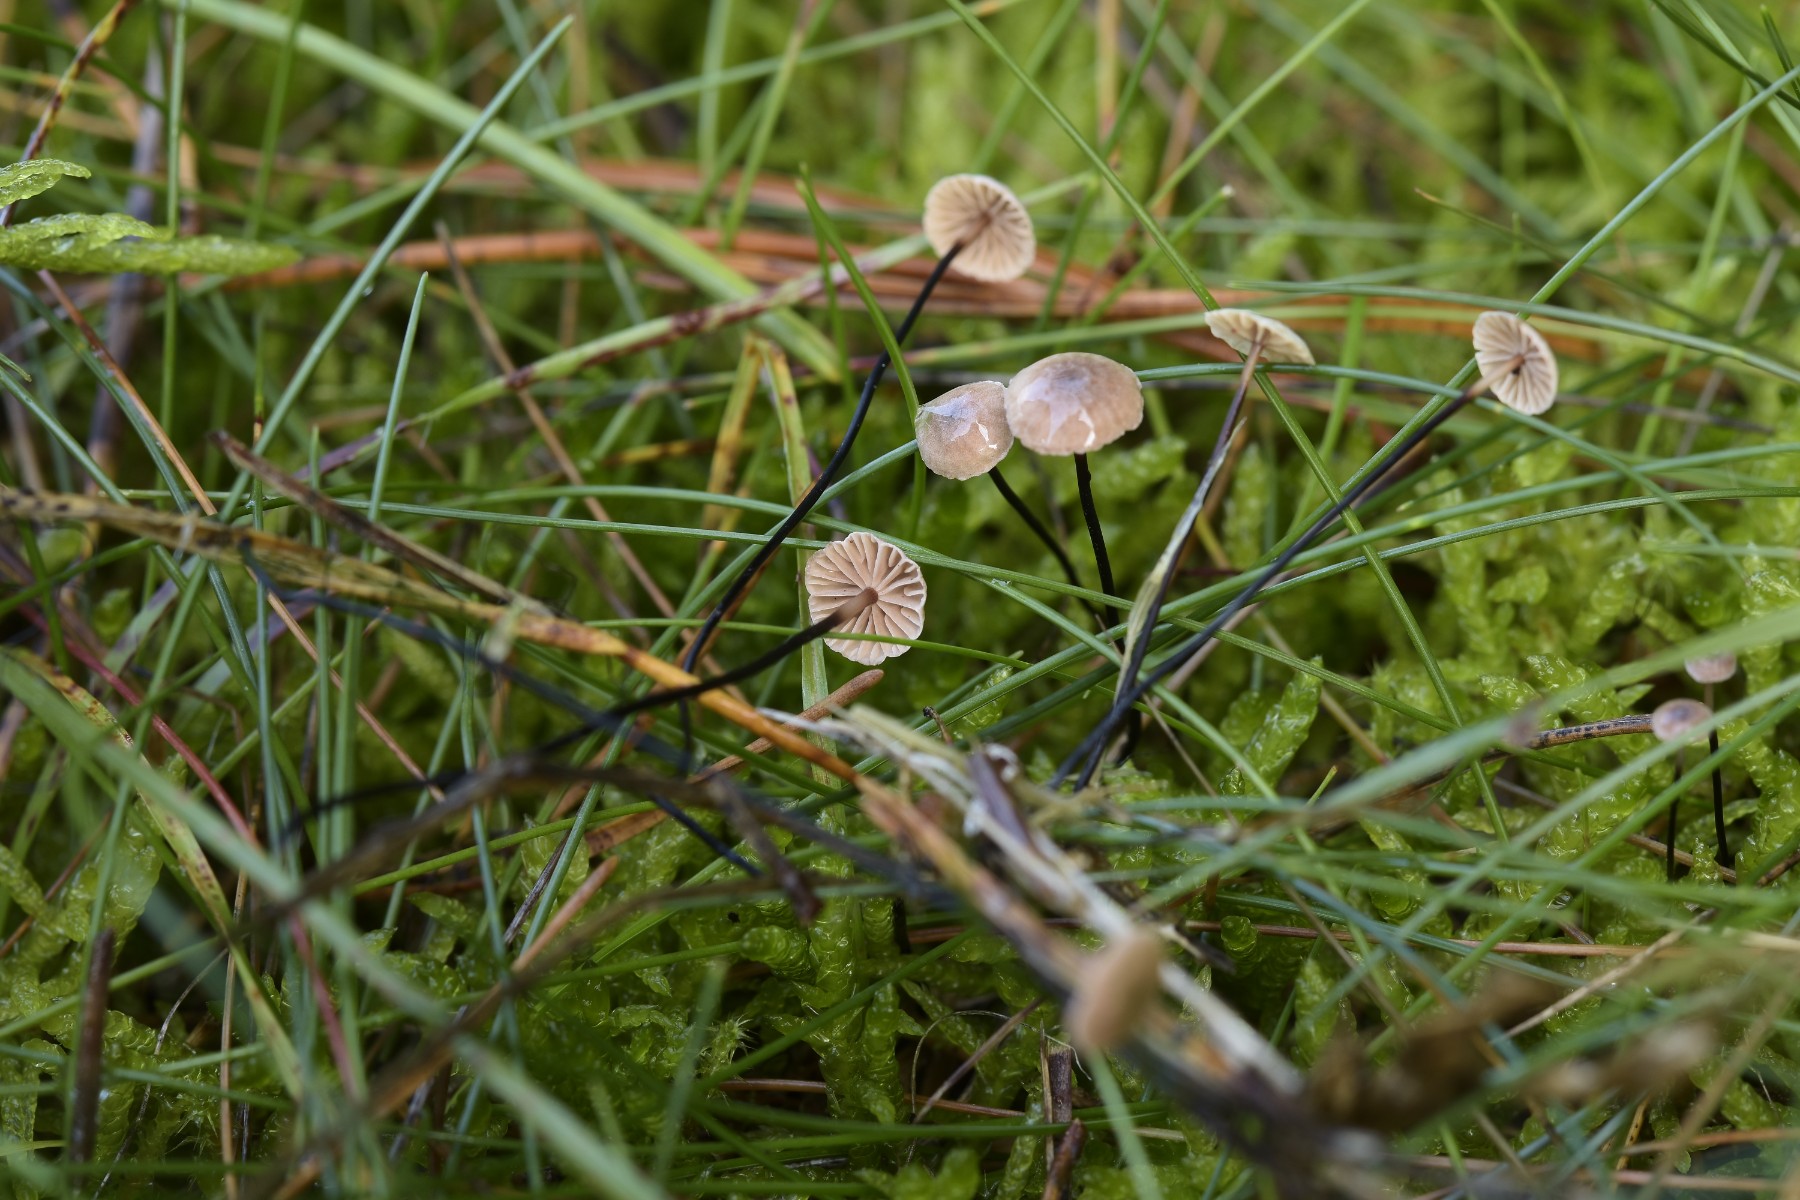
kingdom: Fungi
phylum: Basidiomycota
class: Agaricomycetes
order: Agaricales
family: Omphalotaceae
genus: Gymnopus
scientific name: Gymnopus androsaceus
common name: trådstokket fladhat
